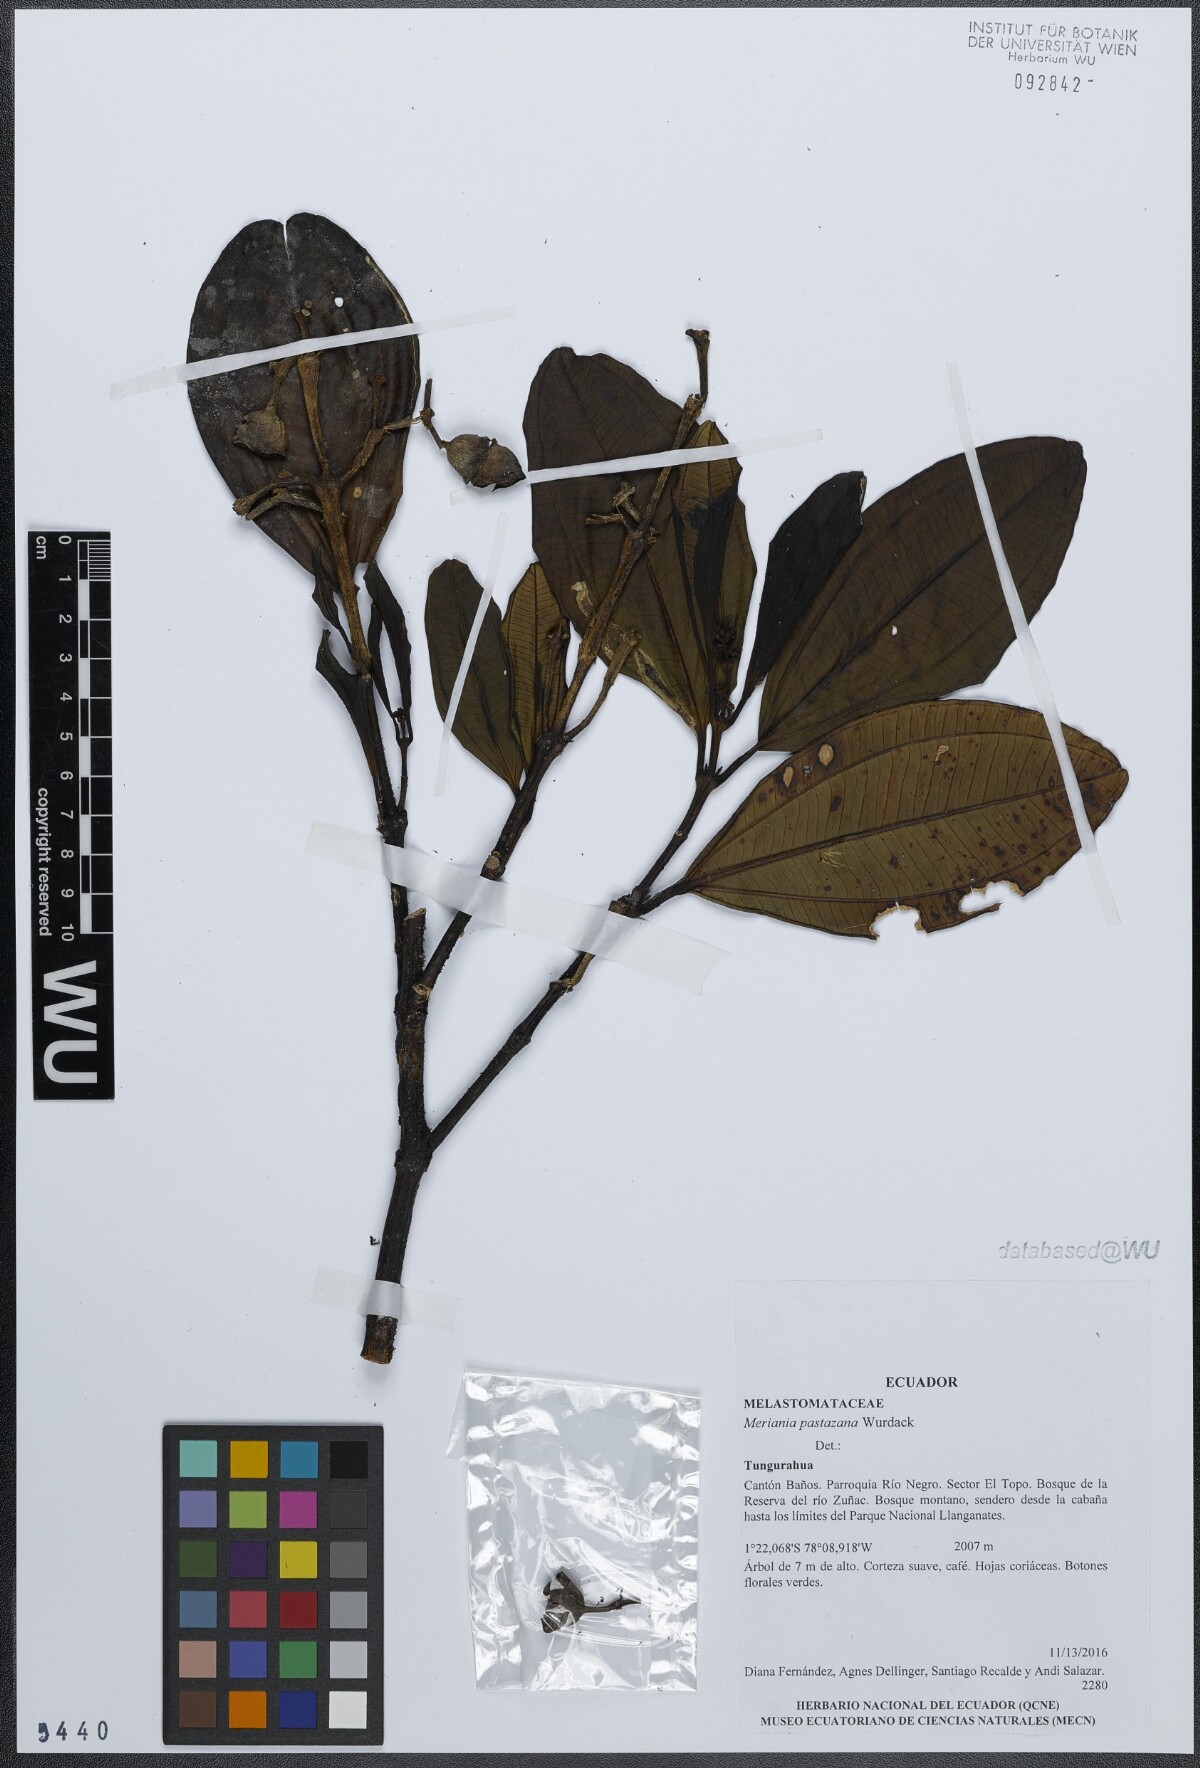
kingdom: Plantae
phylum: Tracheophyta
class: Magnoliopsida
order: Myrtales
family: Melastomataceae
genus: Meriania
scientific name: Meriania pastazana
